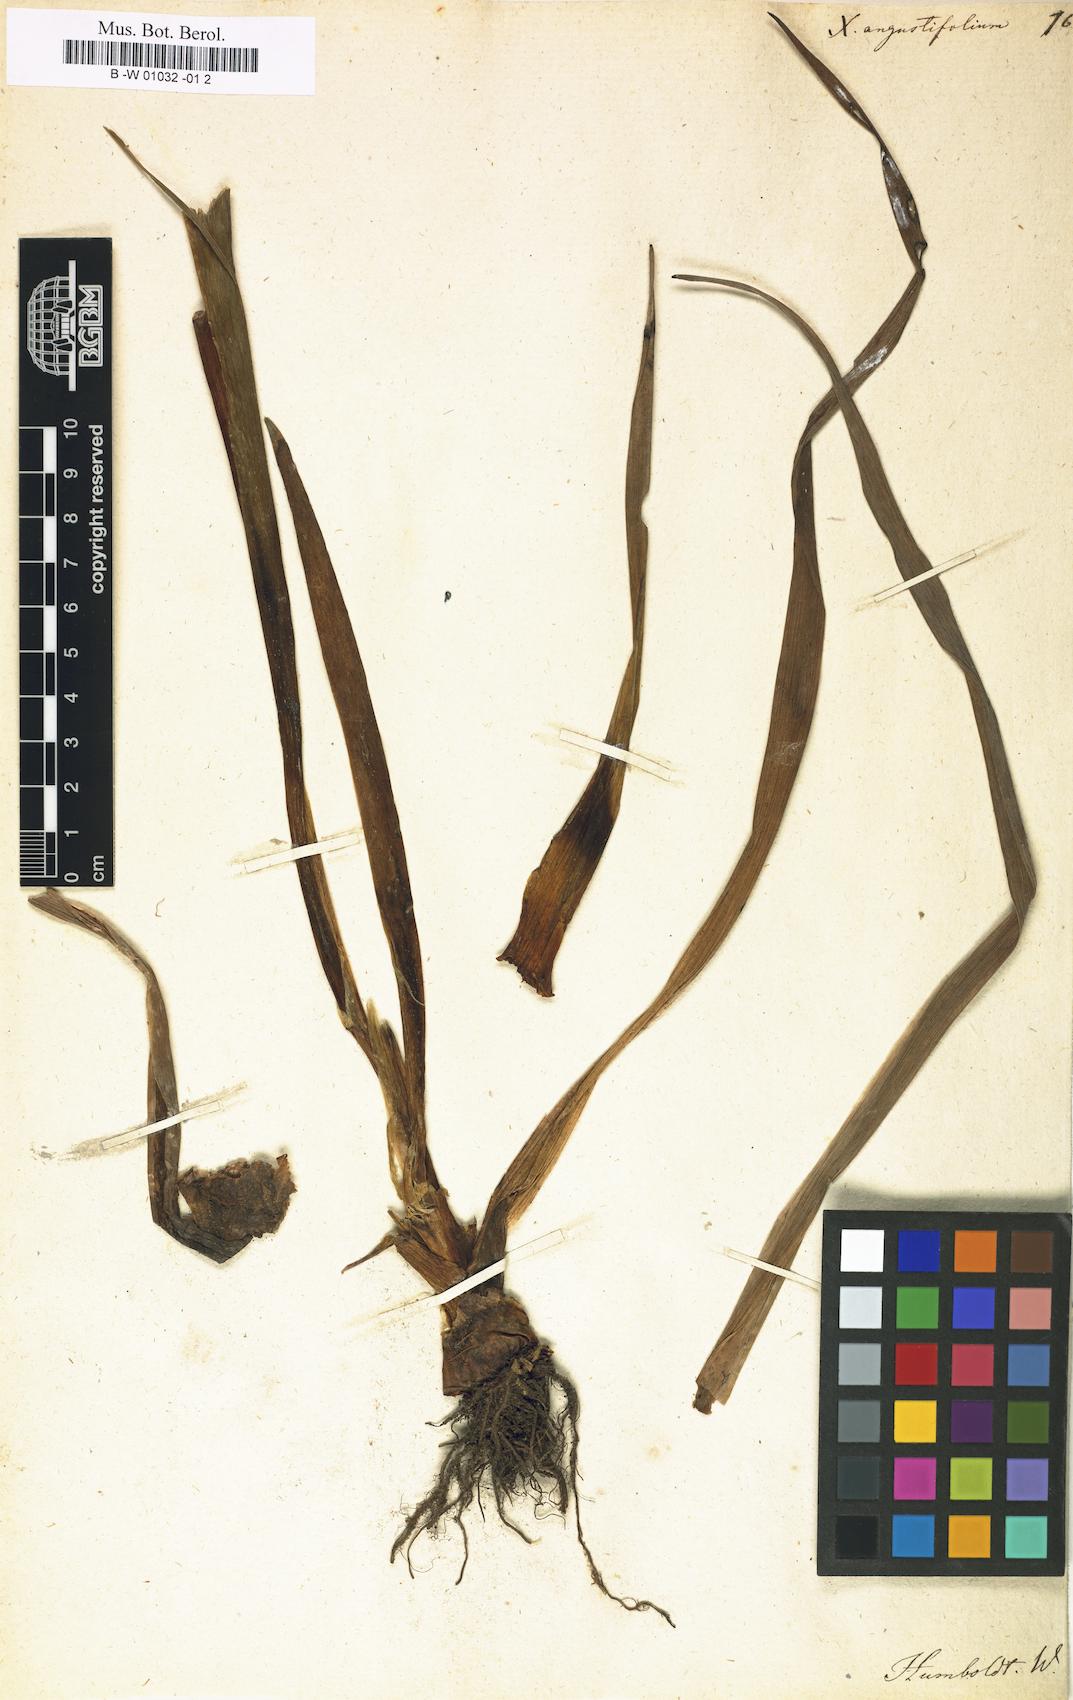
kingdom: Plantae
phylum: Tracheophyta
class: Liliopsida
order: Commelinales
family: Haemodoraceae
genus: Schiekia
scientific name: Schiekia orinocensis
